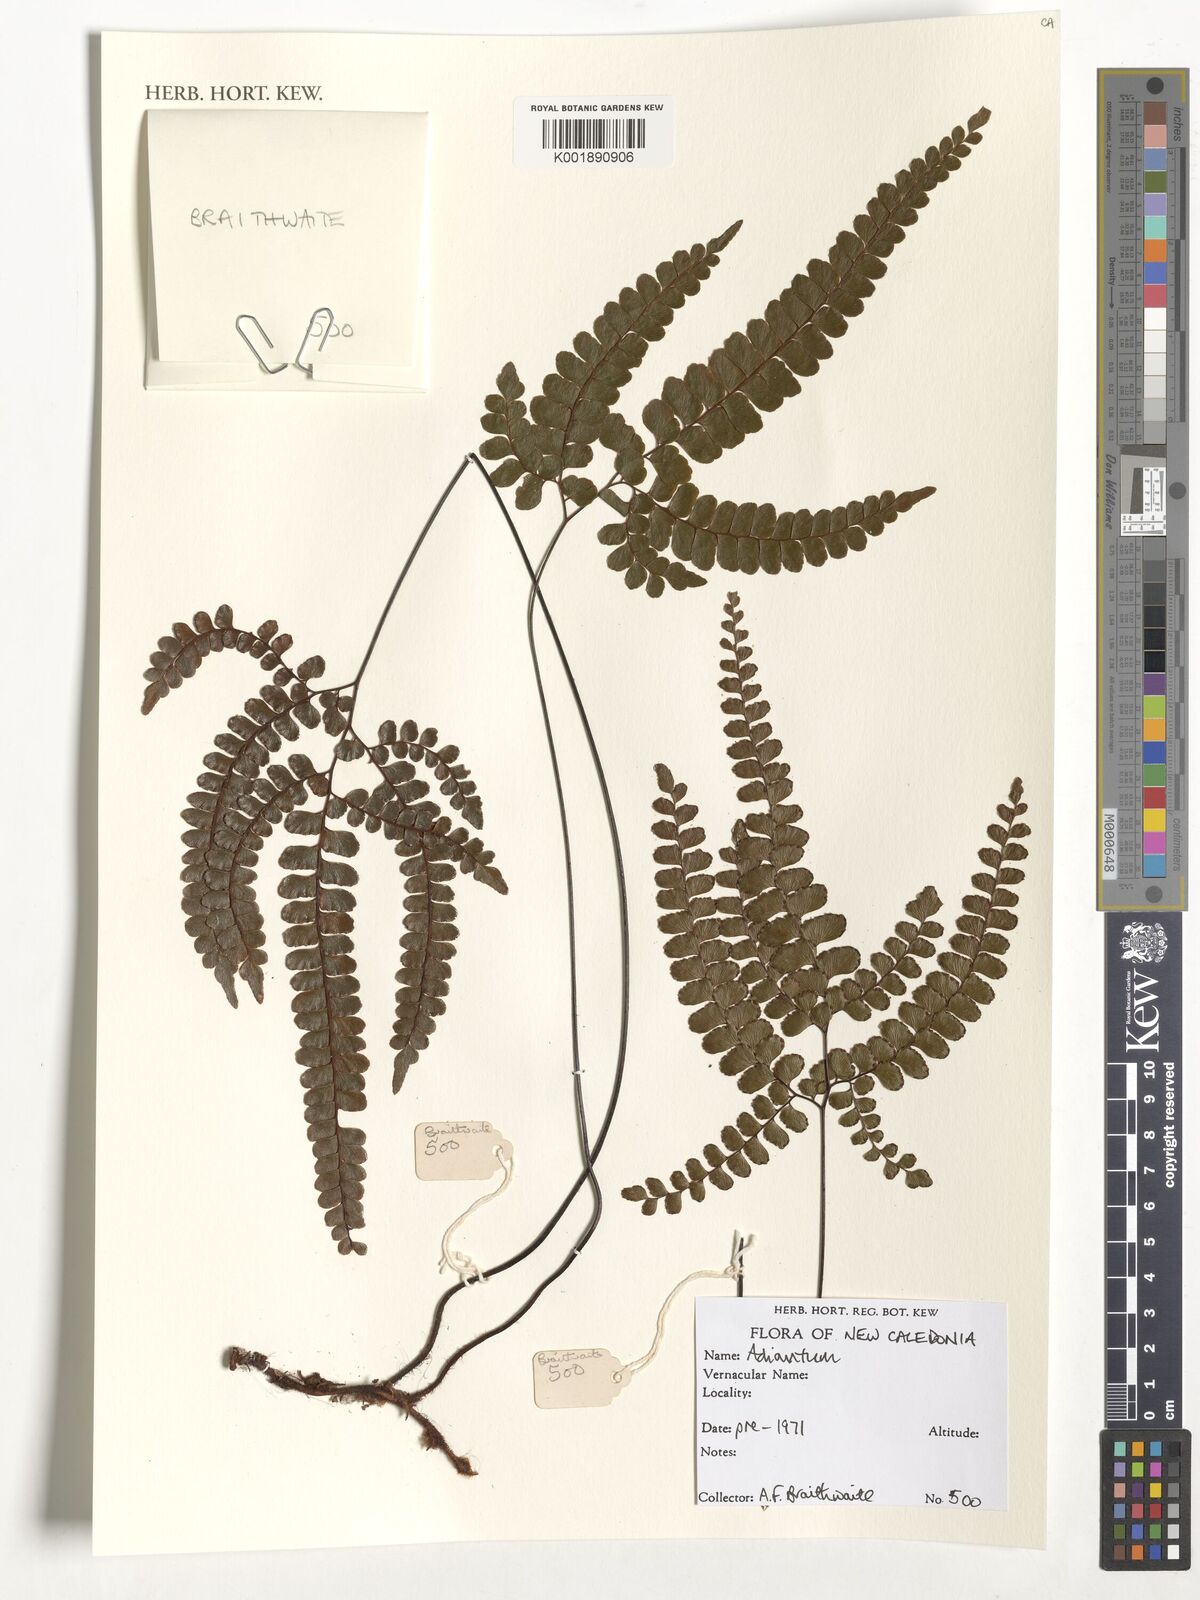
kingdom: Plantae
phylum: Tracheophyta
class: Polypodiopsida
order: Polypodiales
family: Pteridaceae
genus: Adiantum
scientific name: Adiantum
